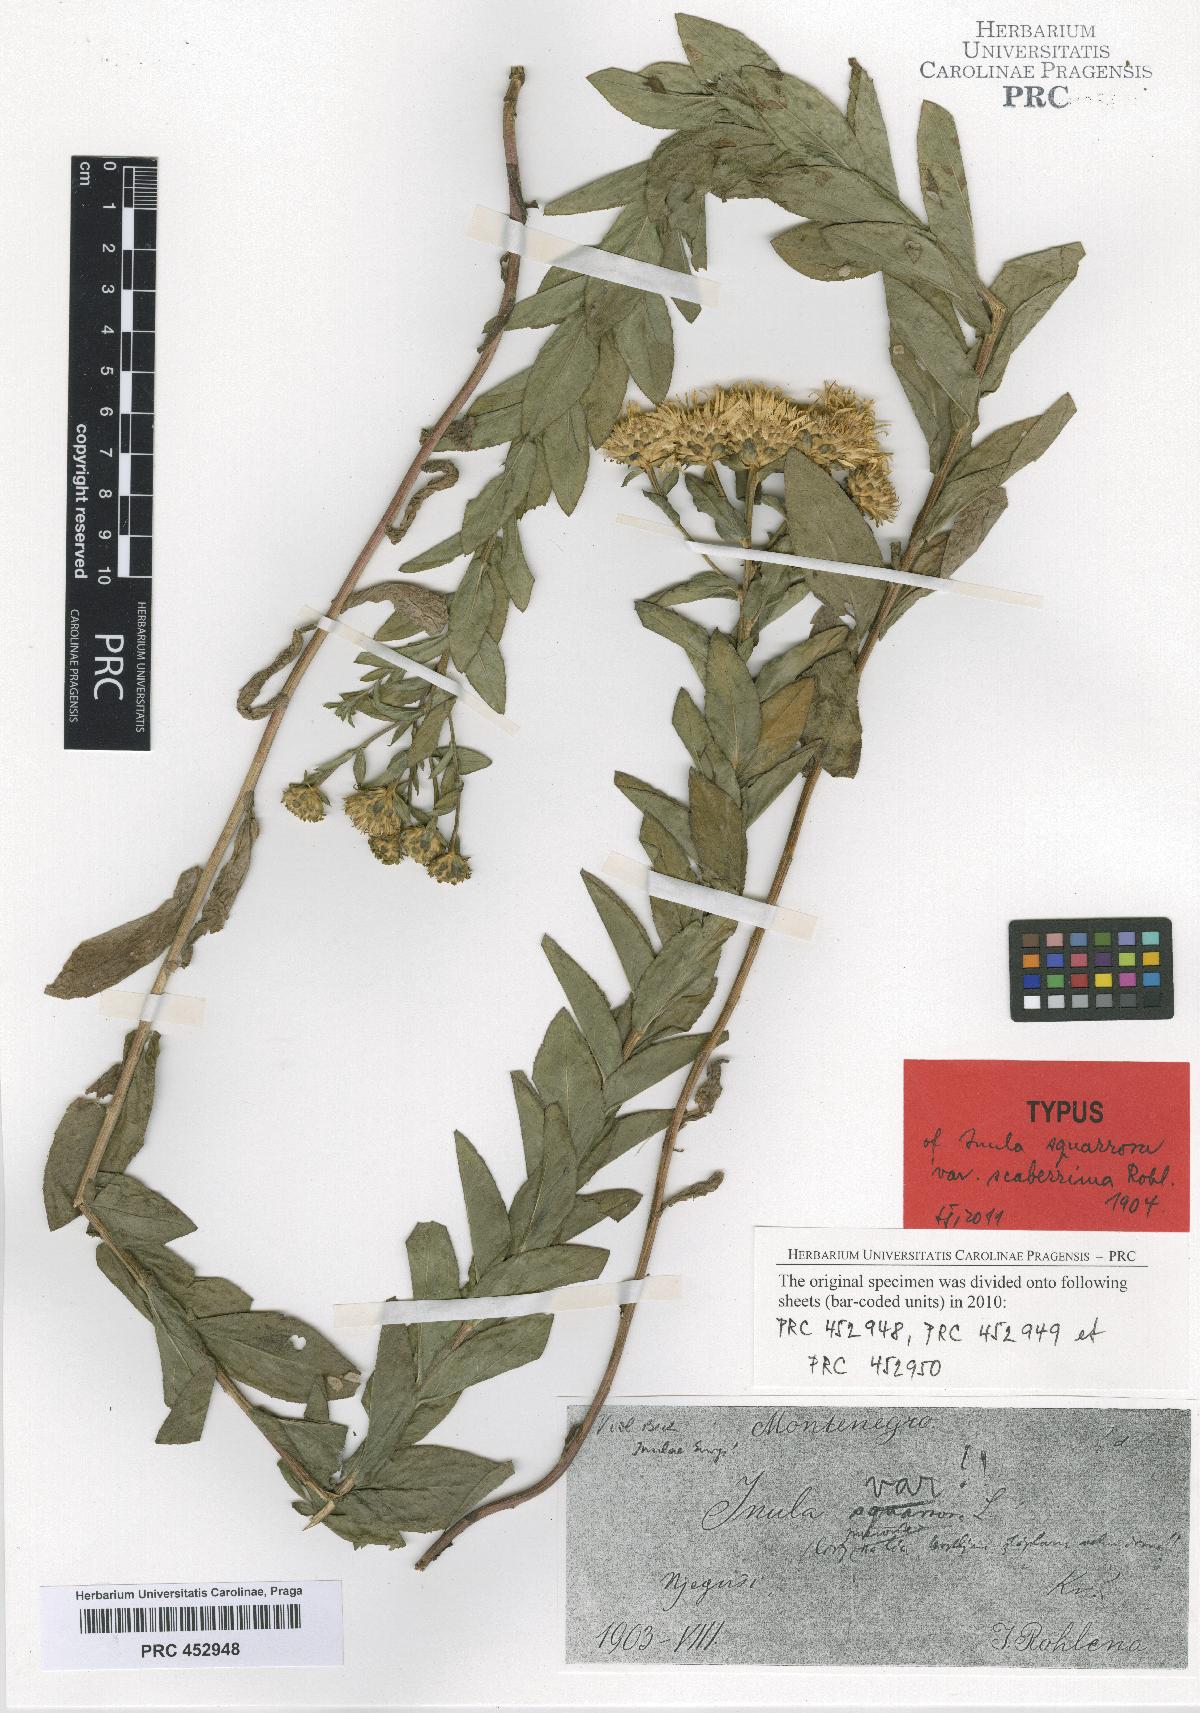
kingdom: Plantae
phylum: Tracheophyta
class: Magnoliopsida
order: Asterales
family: Asteraceae
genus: Pentanema
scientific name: Pentanema spiraeifolium
